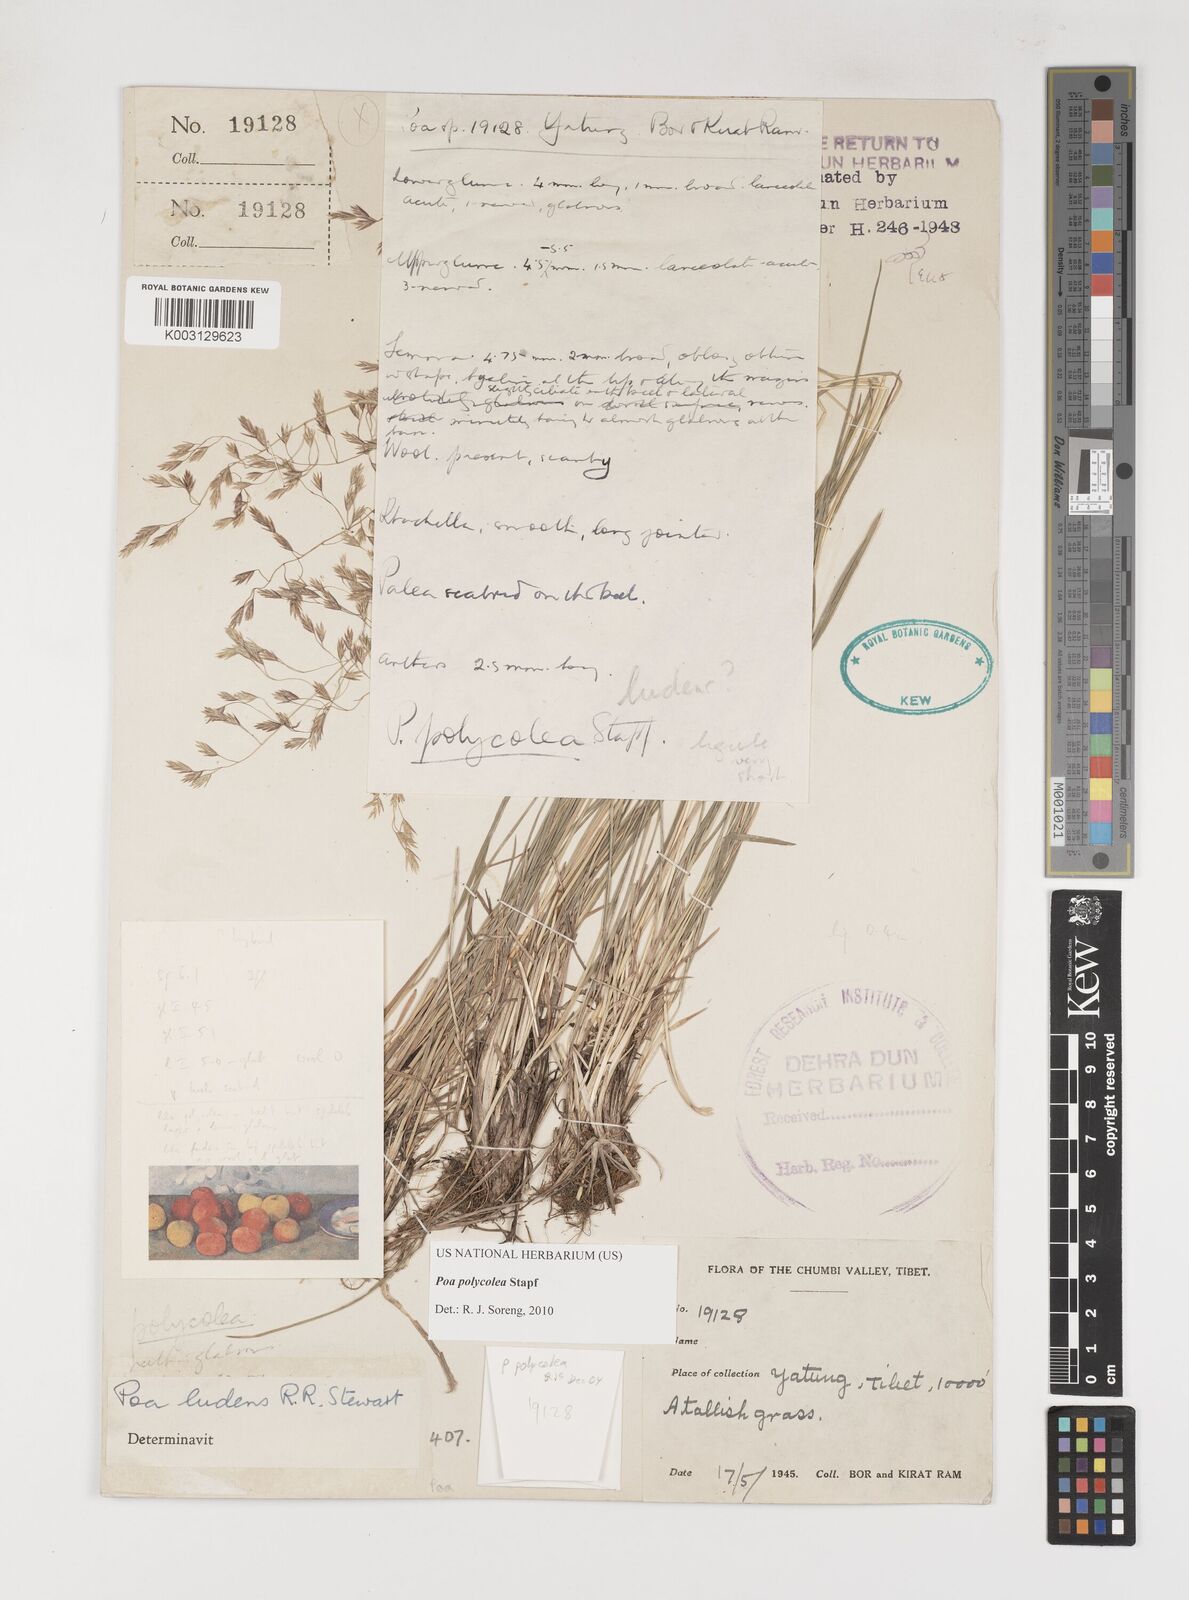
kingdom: Plantae
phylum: Tracheophyta
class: Liliopsida
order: Poales
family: Poaceae
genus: Poa
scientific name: Poa polycolea
